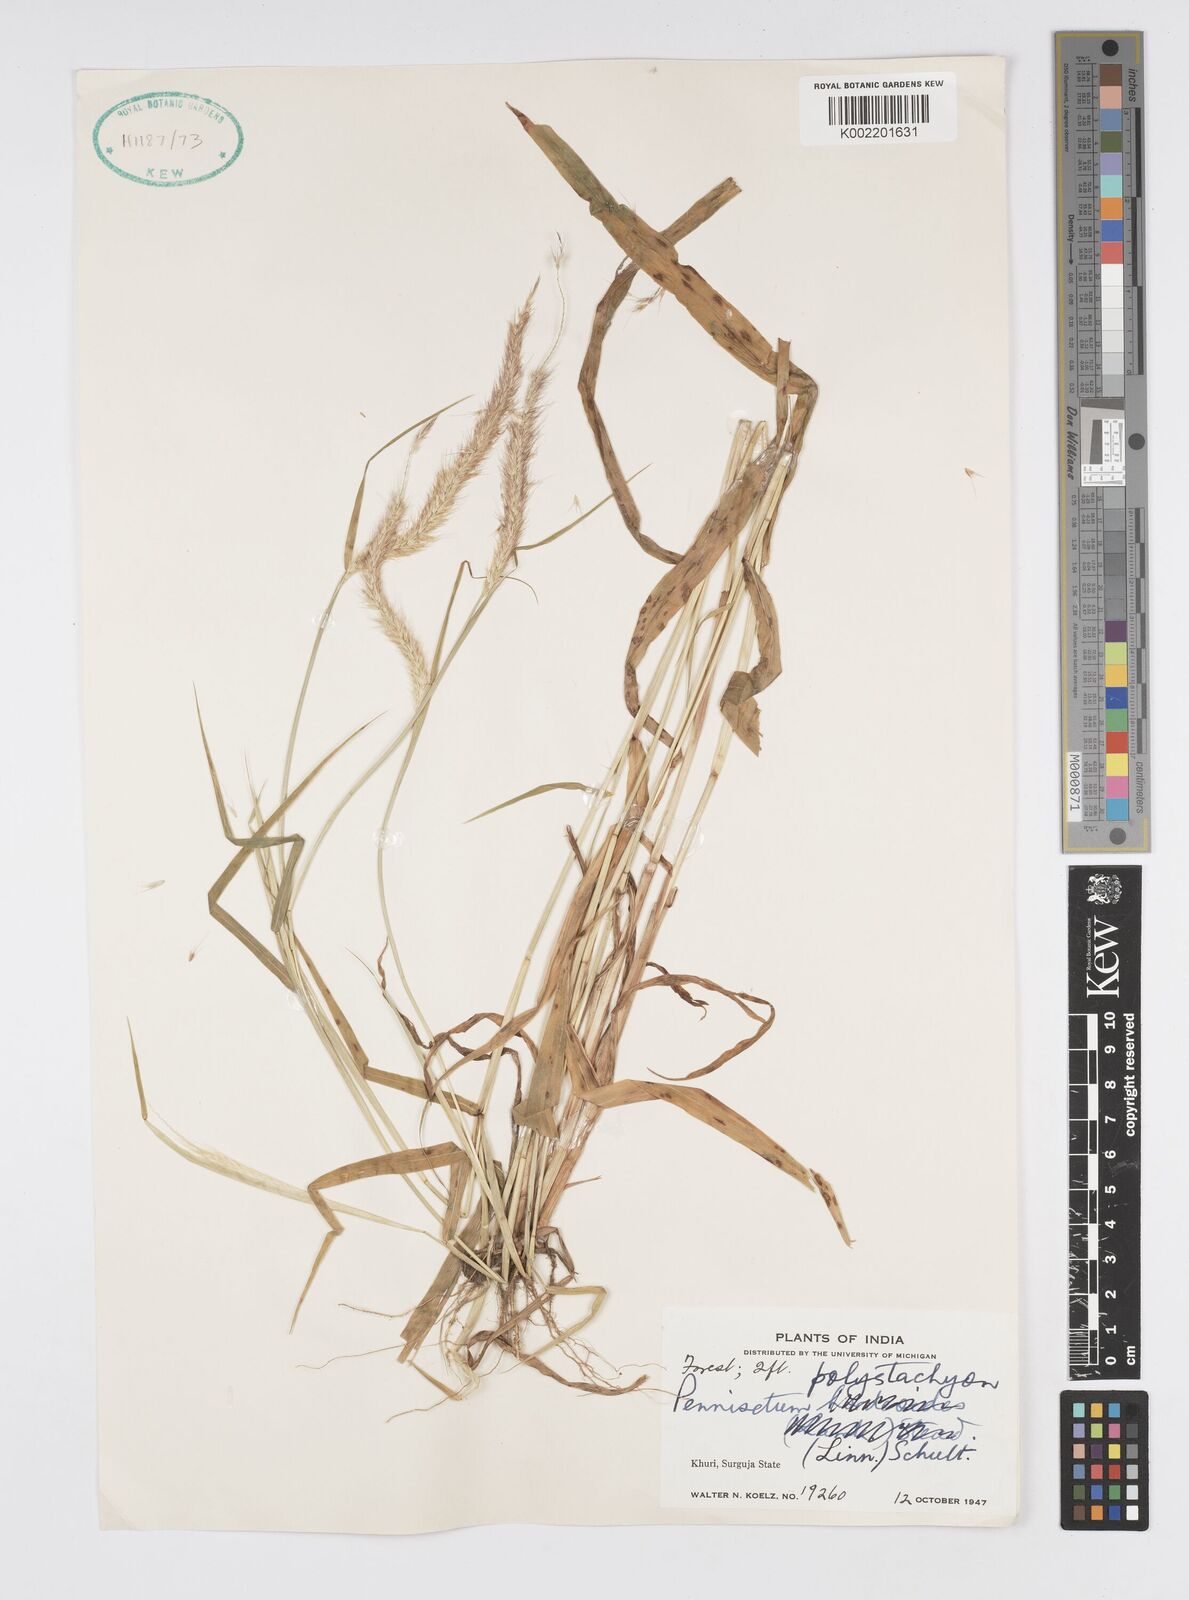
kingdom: Plantae
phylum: Tracheophyta
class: Liliopsida
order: Poales
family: Poaceae
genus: Setaria
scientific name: Setaria parviflora
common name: Knotroot bristle-grass
